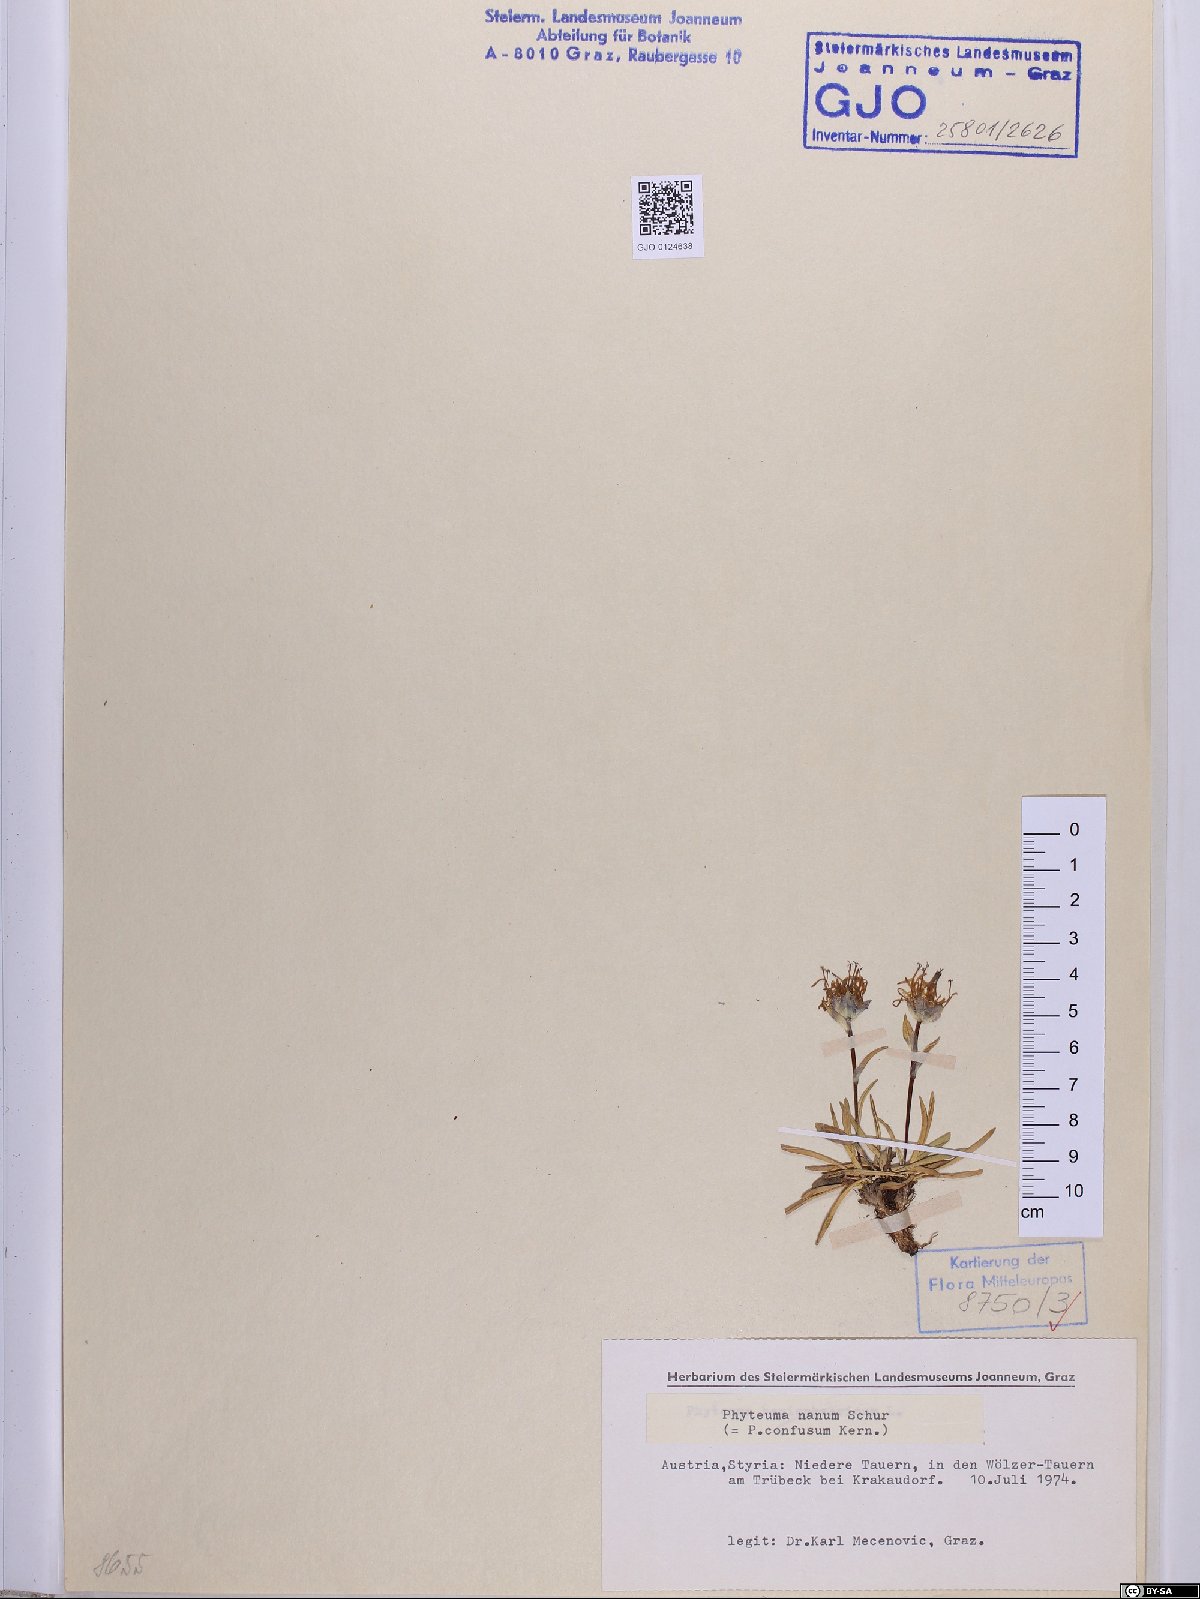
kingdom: Plantae
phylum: Tracheophyta
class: Magnoliopsida
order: Asterales
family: Campanulaceae
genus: Phyteuma
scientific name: Phyteuma globulariifolium
